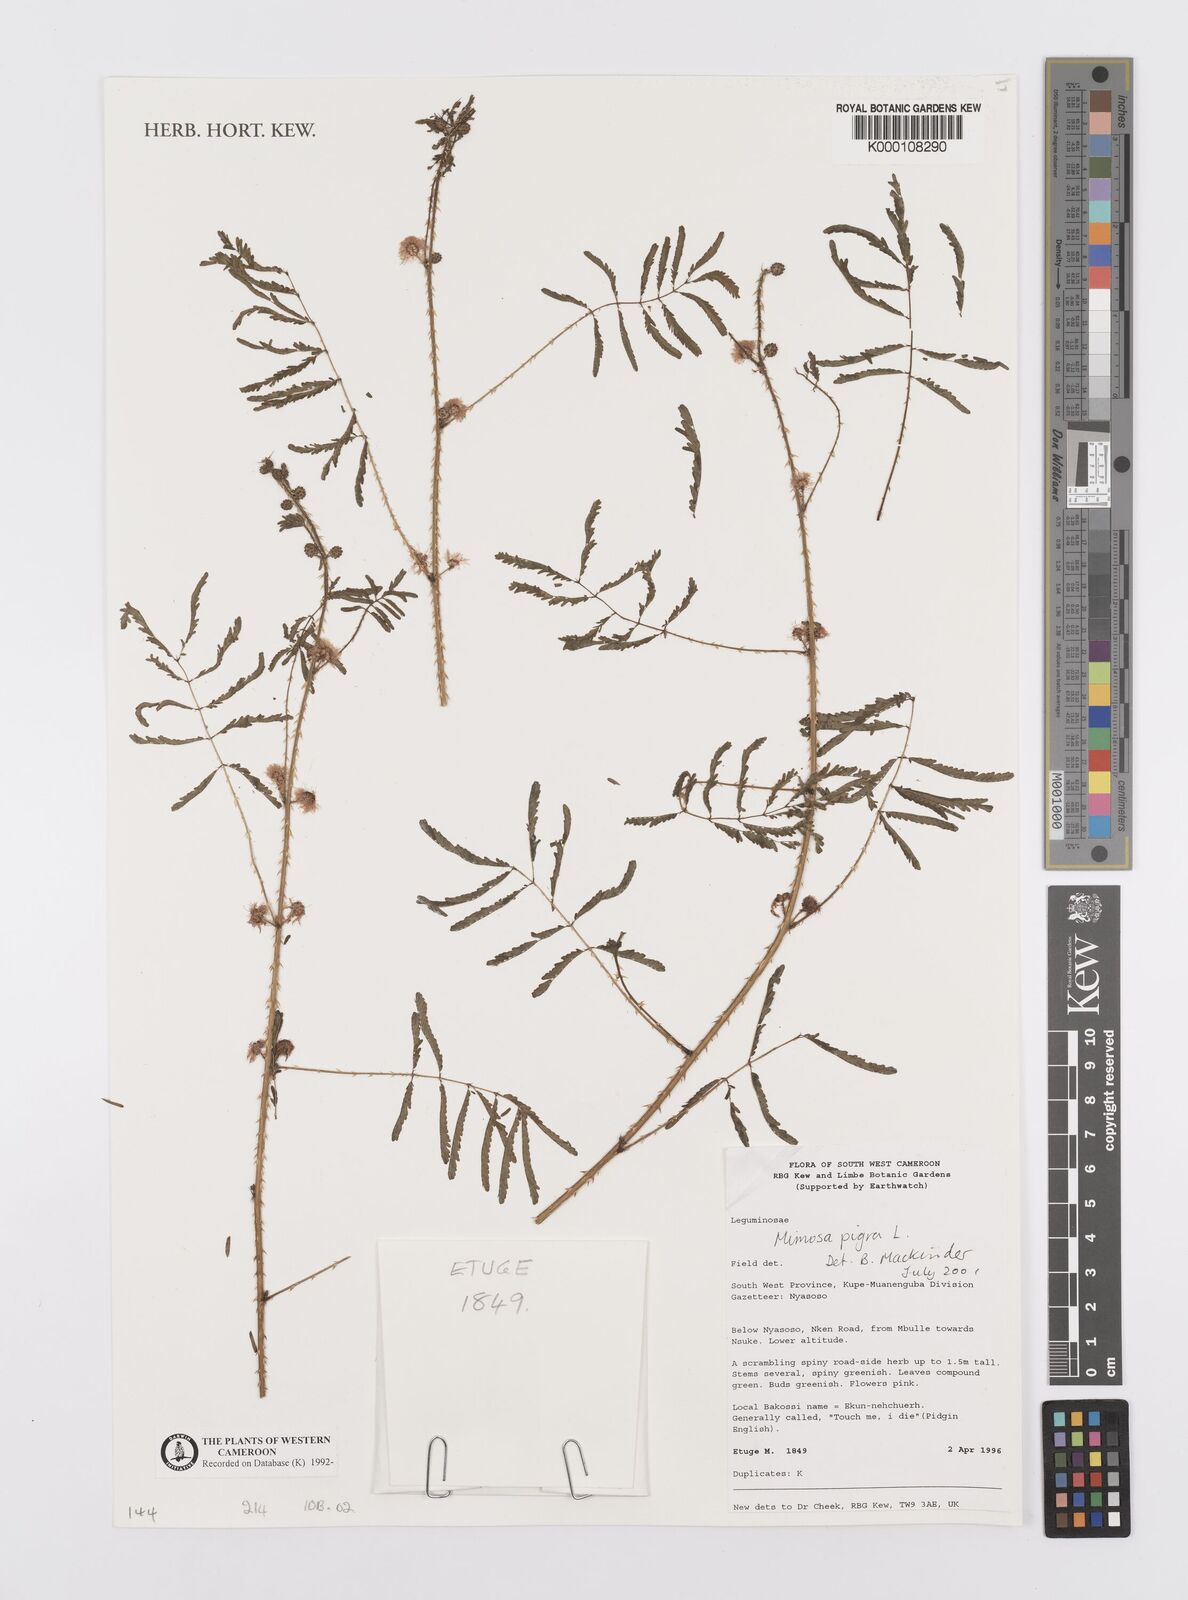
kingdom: Plantae
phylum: Tracheophyta
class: Magnoliopsida
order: Fabales
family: Fabaceae
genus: Mimosa
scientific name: Mimosa pigra
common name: Black mimosa
